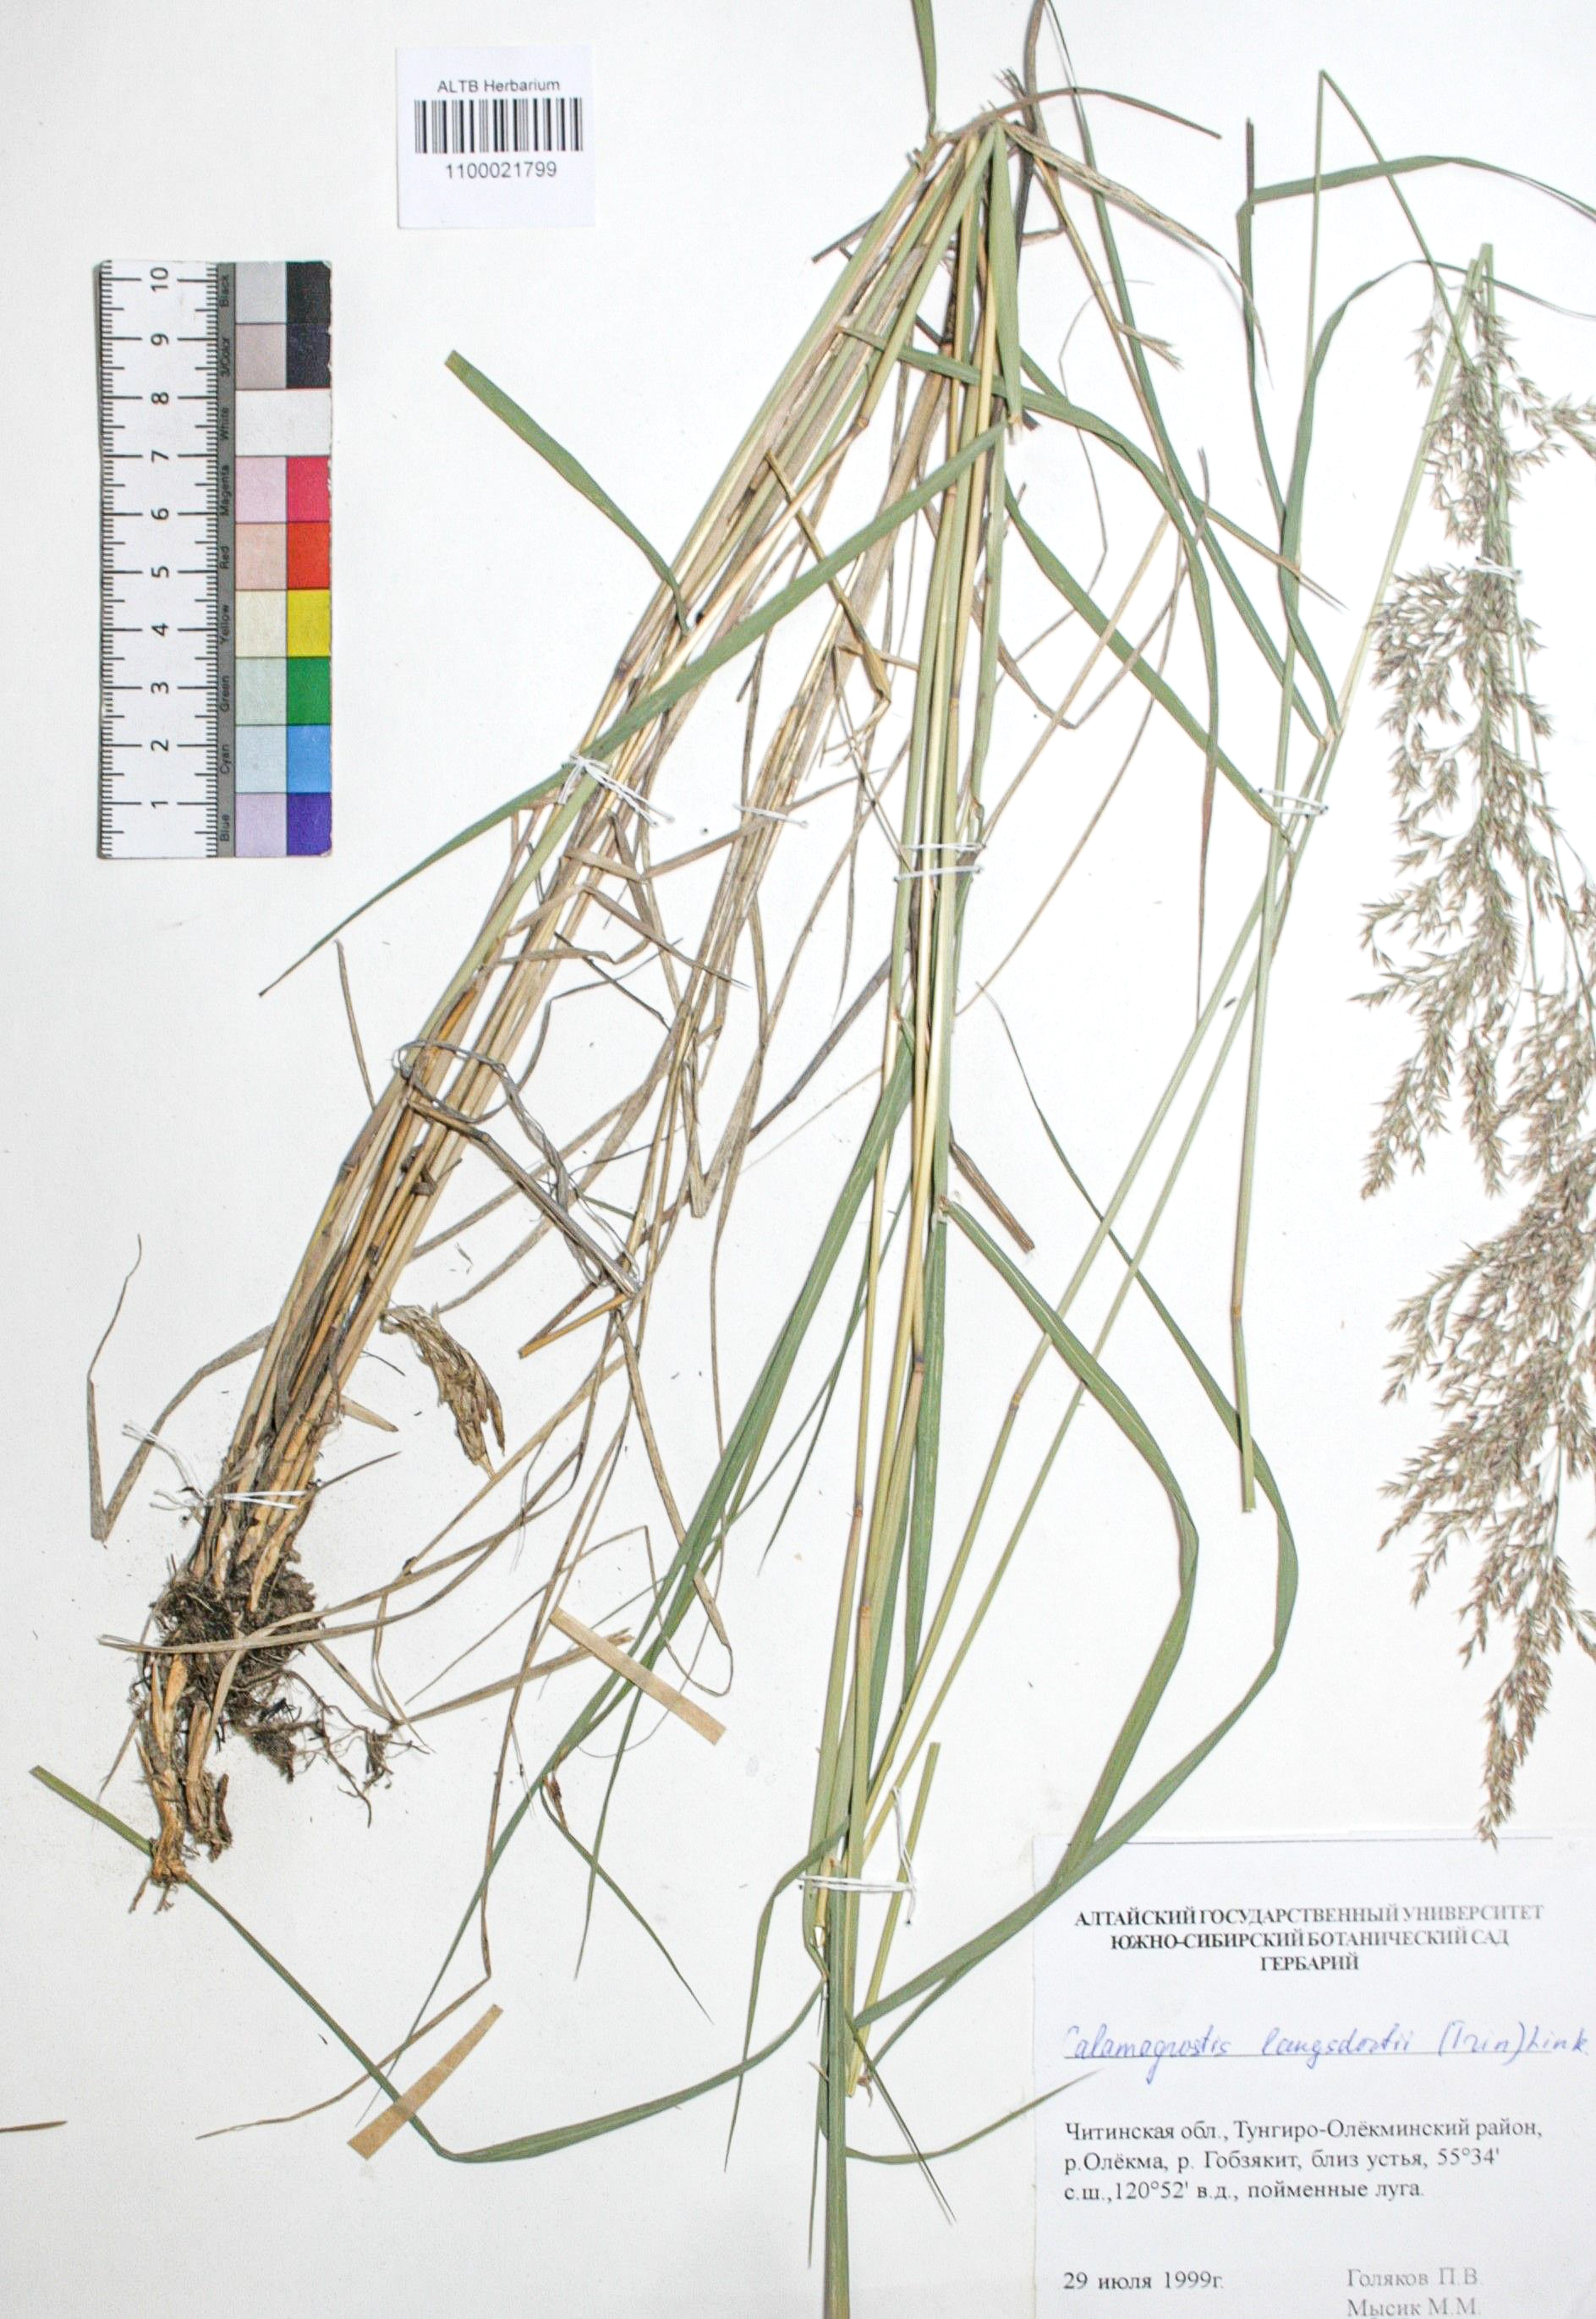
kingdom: Plantae
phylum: Tracheophyta
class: Liliopsida
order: Poales
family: Poaceae
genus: Calamagrostis
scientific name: Calamagrostis purpurea
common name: Scandinavian small-reed
